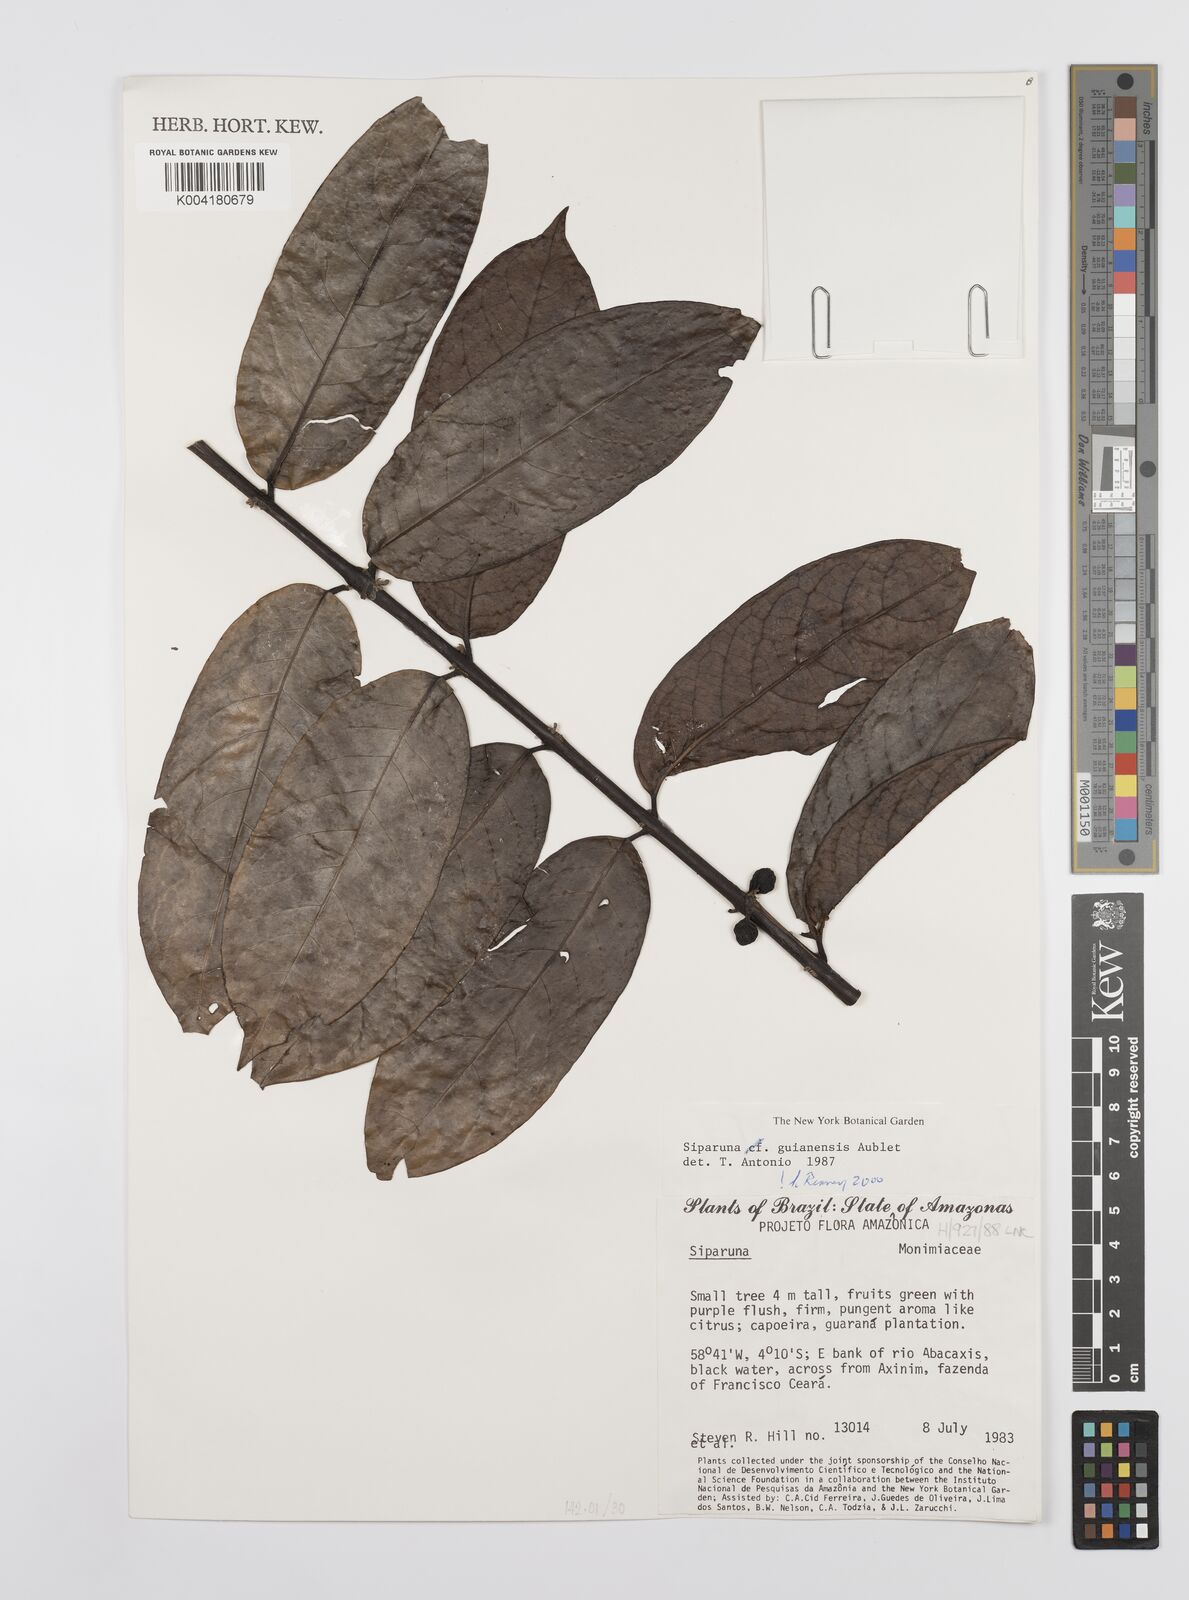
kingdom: Plantae
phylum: Tracheophyta
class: Magnoliopsida
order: Laurales
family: Siparunaceae
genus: Siparuna
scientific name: Siparuna guianensis
